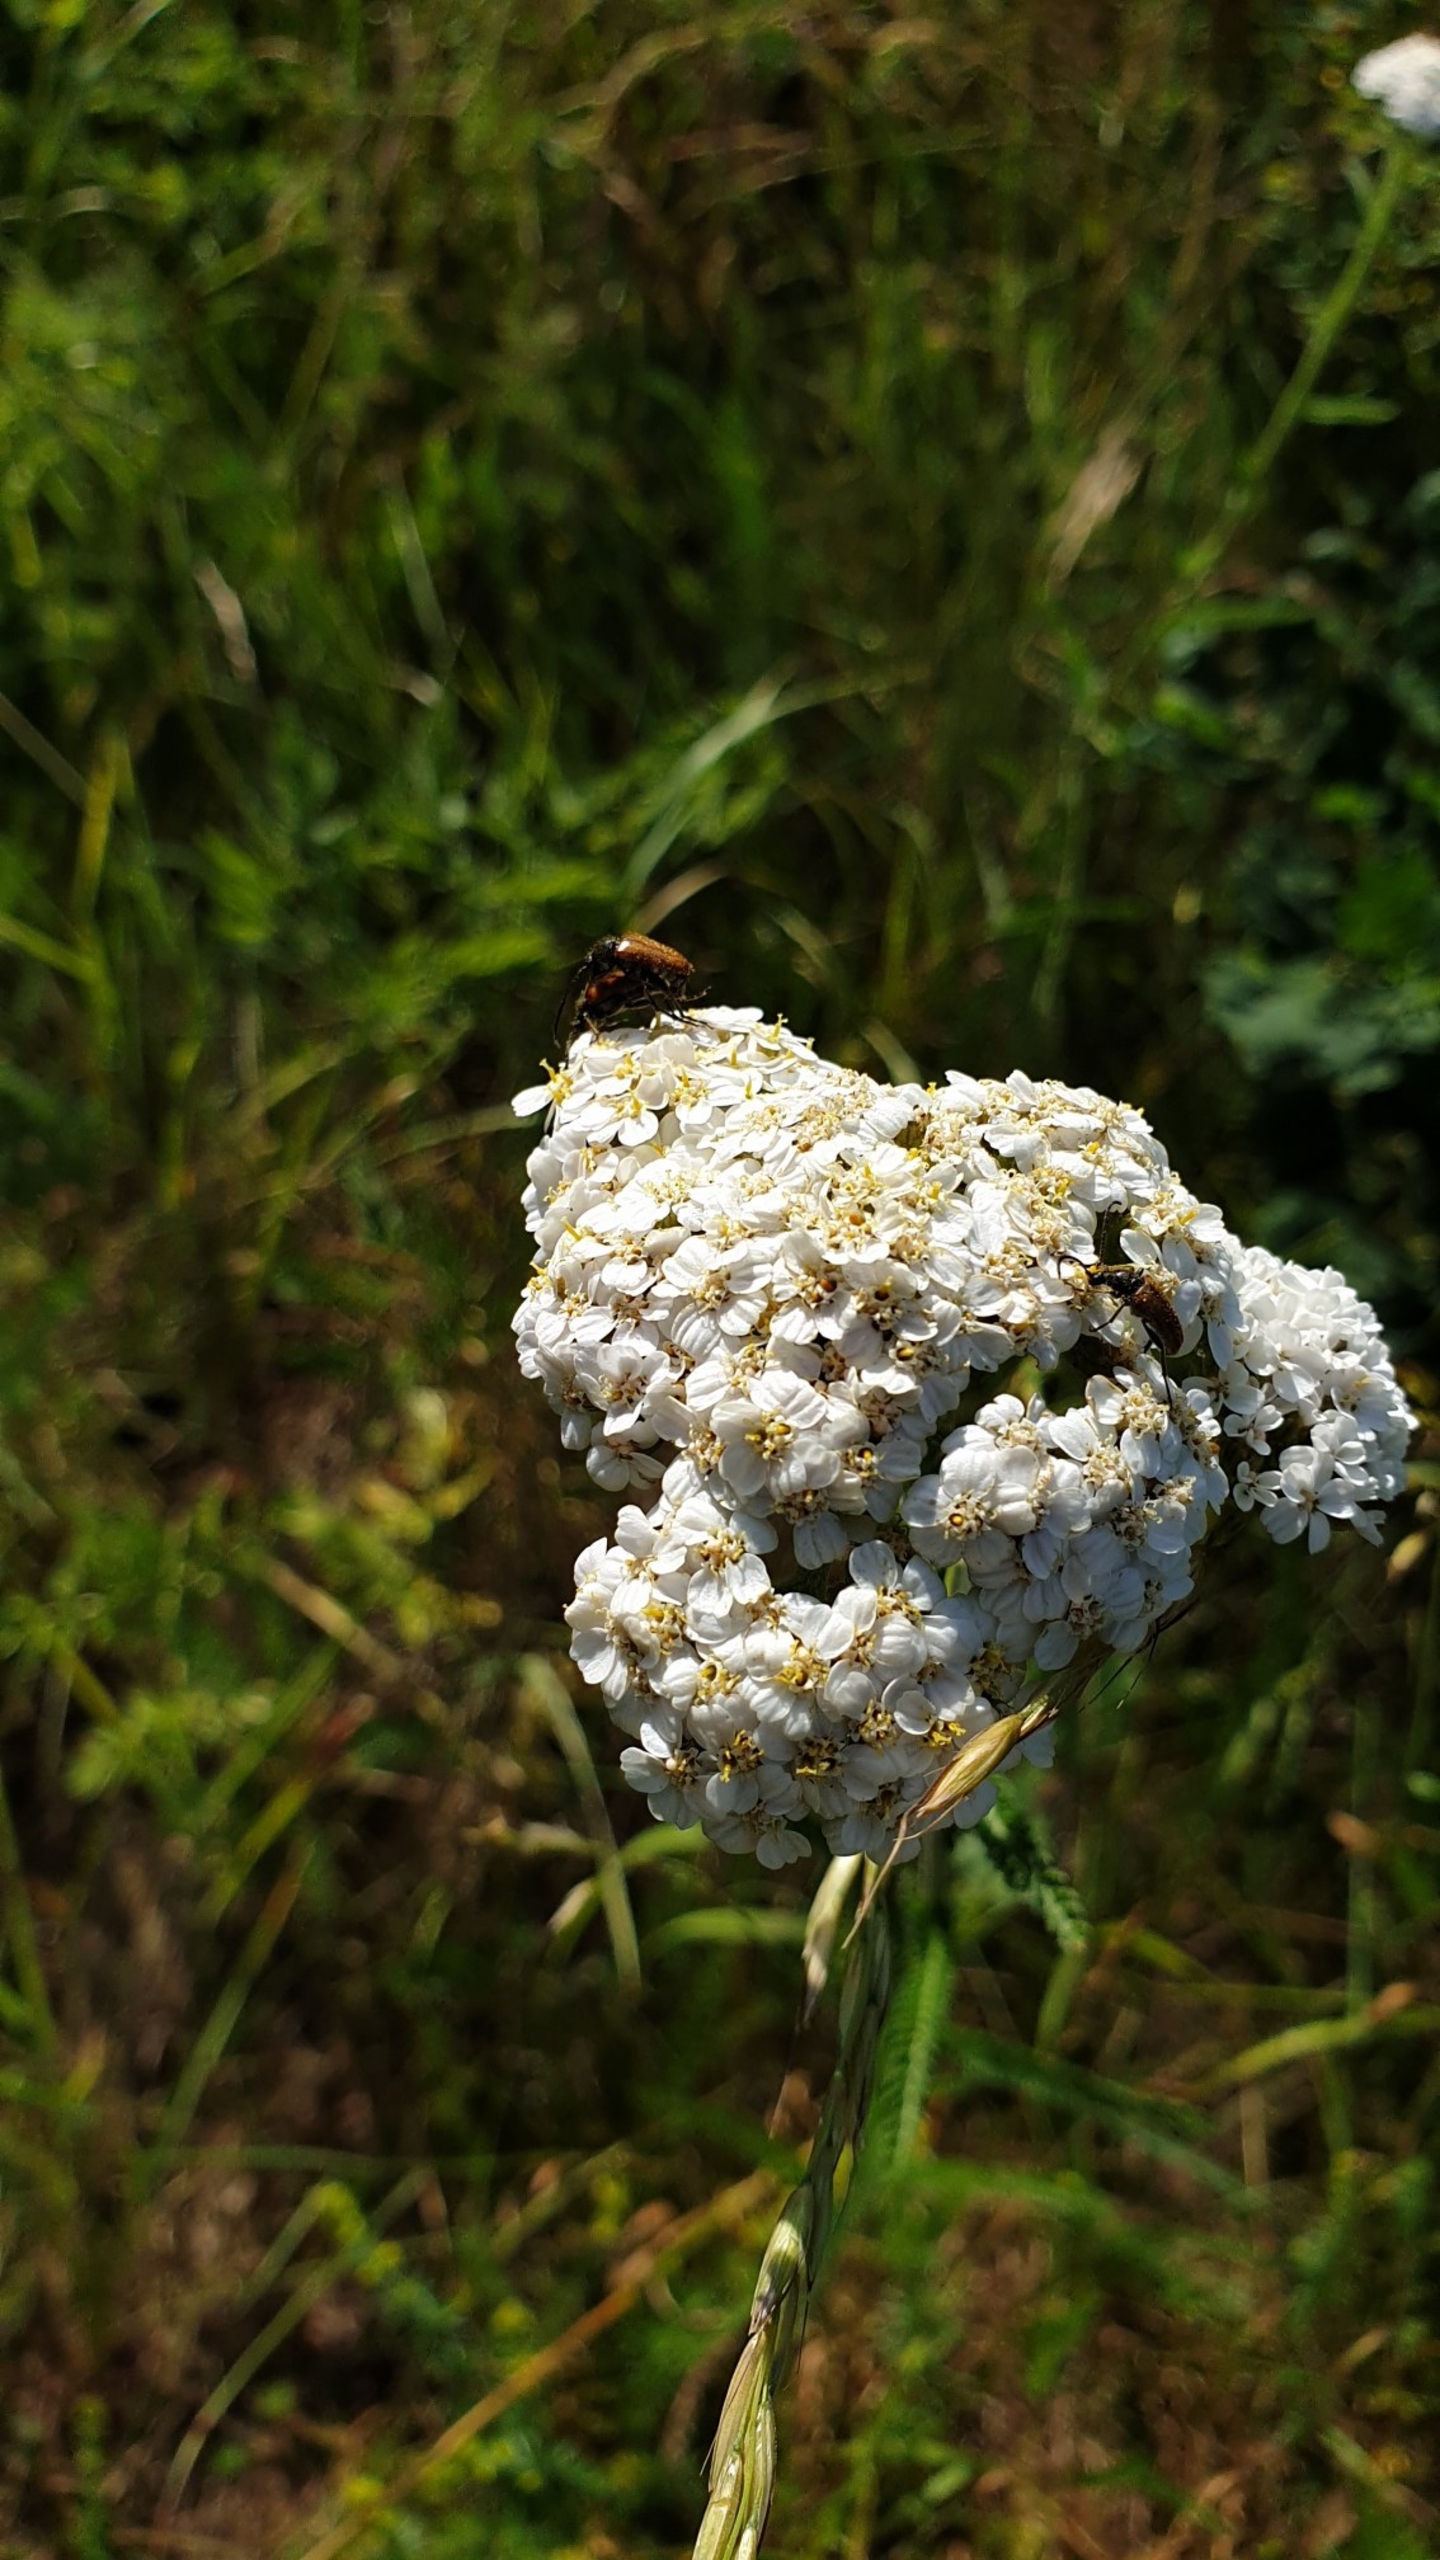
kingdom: Plantae
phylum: Tracheophyta
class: Magnoliopsida
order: Asterales
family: Asteraceae
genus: Achillea
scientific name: Achillea millefolium
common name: Almindelig røllike
